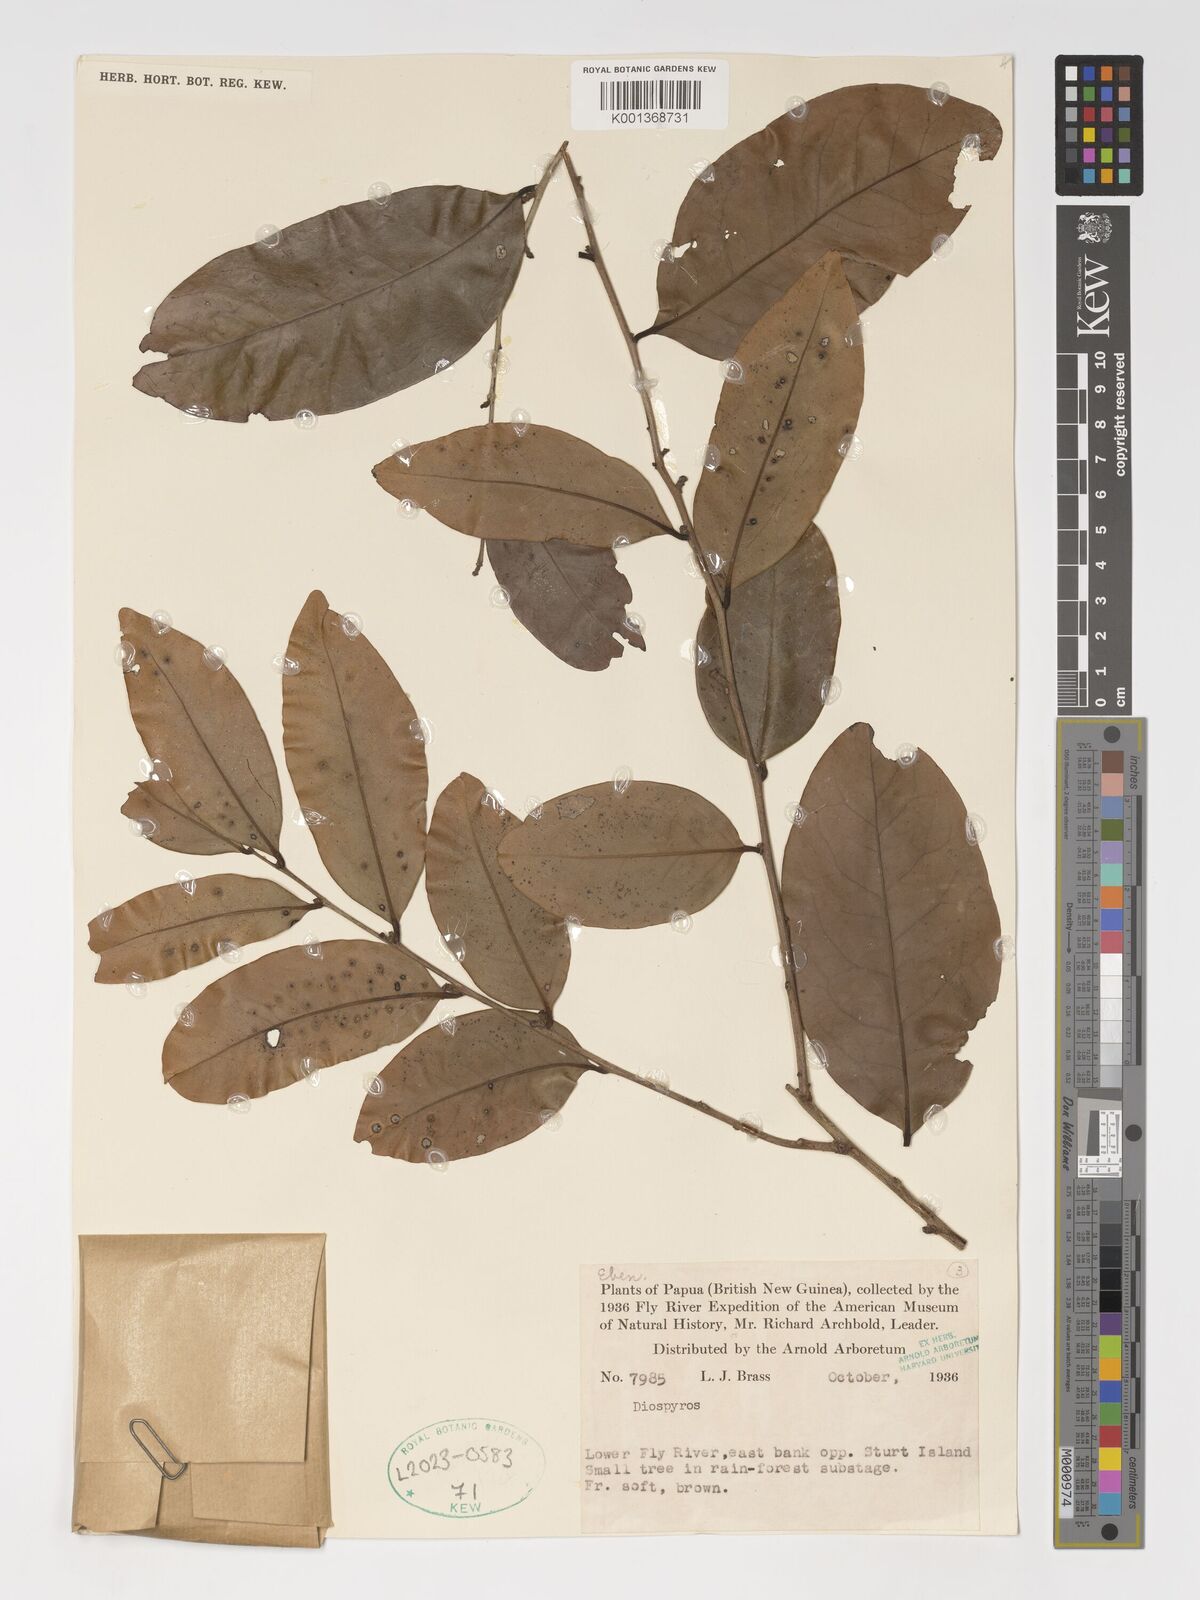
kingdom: Plantae
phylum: Tracheophyta
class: Magnoliopsida
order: Ericales
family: Ebenaceae
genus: Diospyros
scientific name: Diospyros
